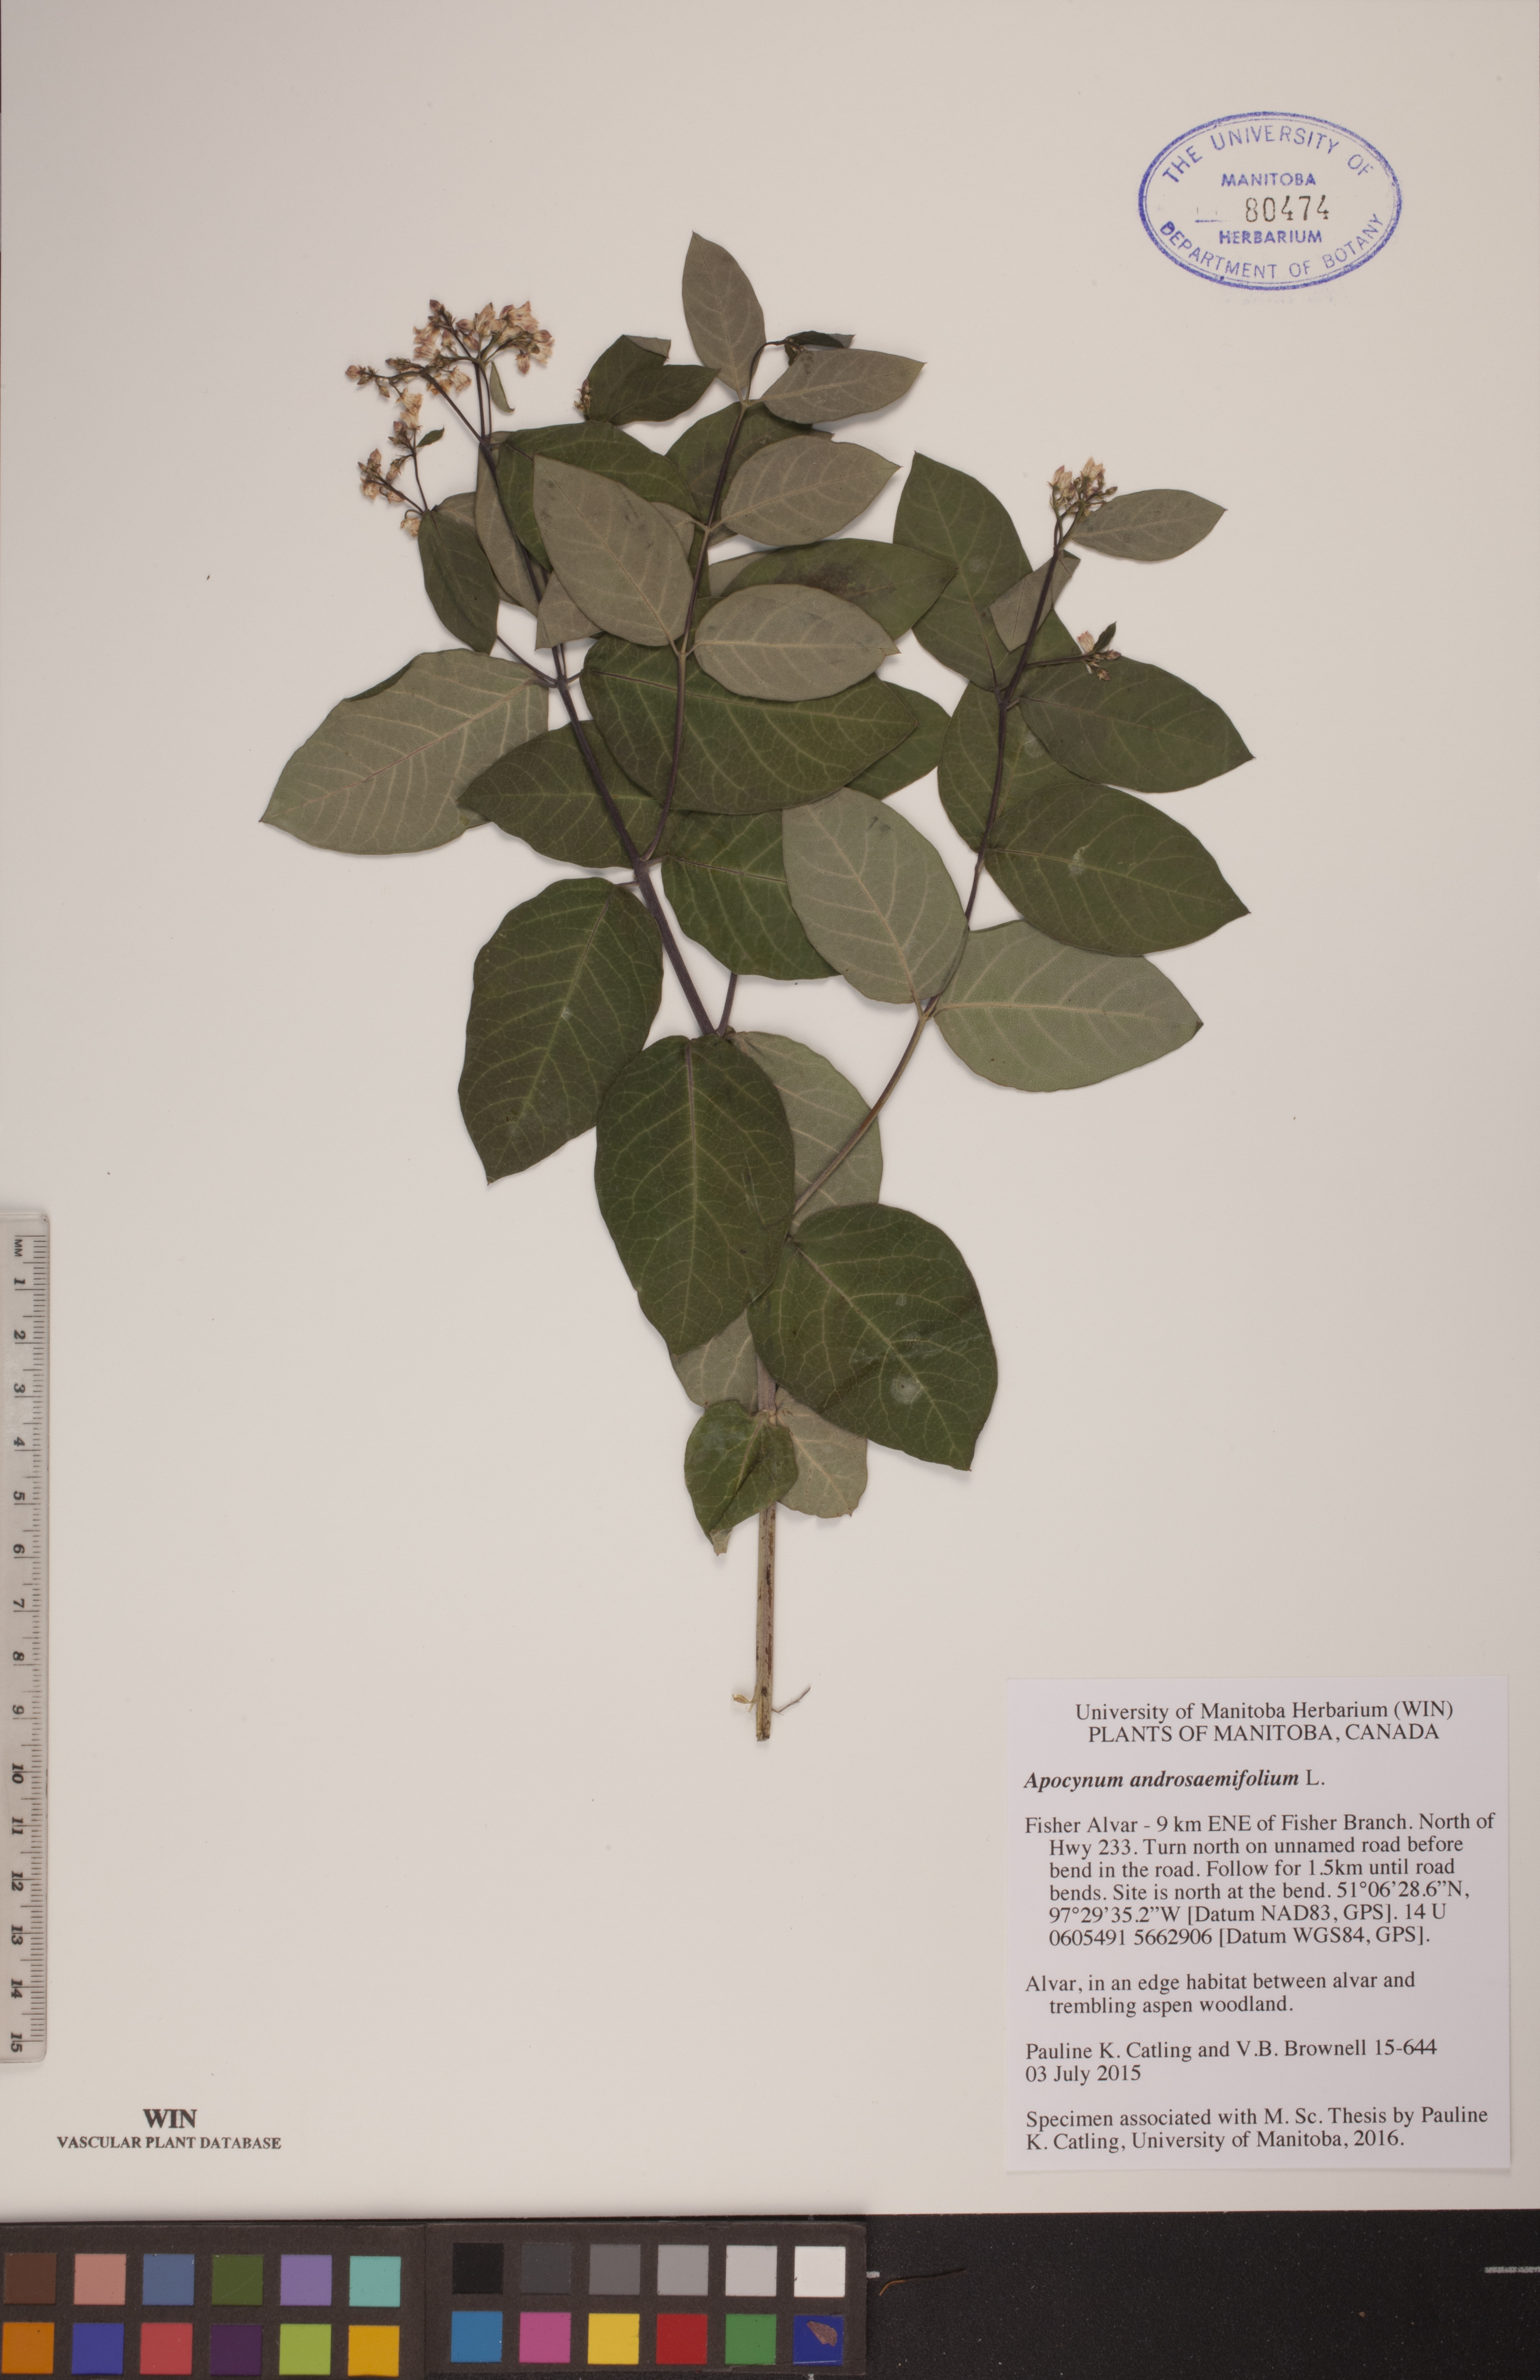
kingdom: Plantae
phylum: Tracheophyta
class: Magnoliopsida
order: Gentianales
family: Apocynaceae
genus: Apocynum
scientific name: Apocynum androsaemifolium
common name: Spreading dogbane
